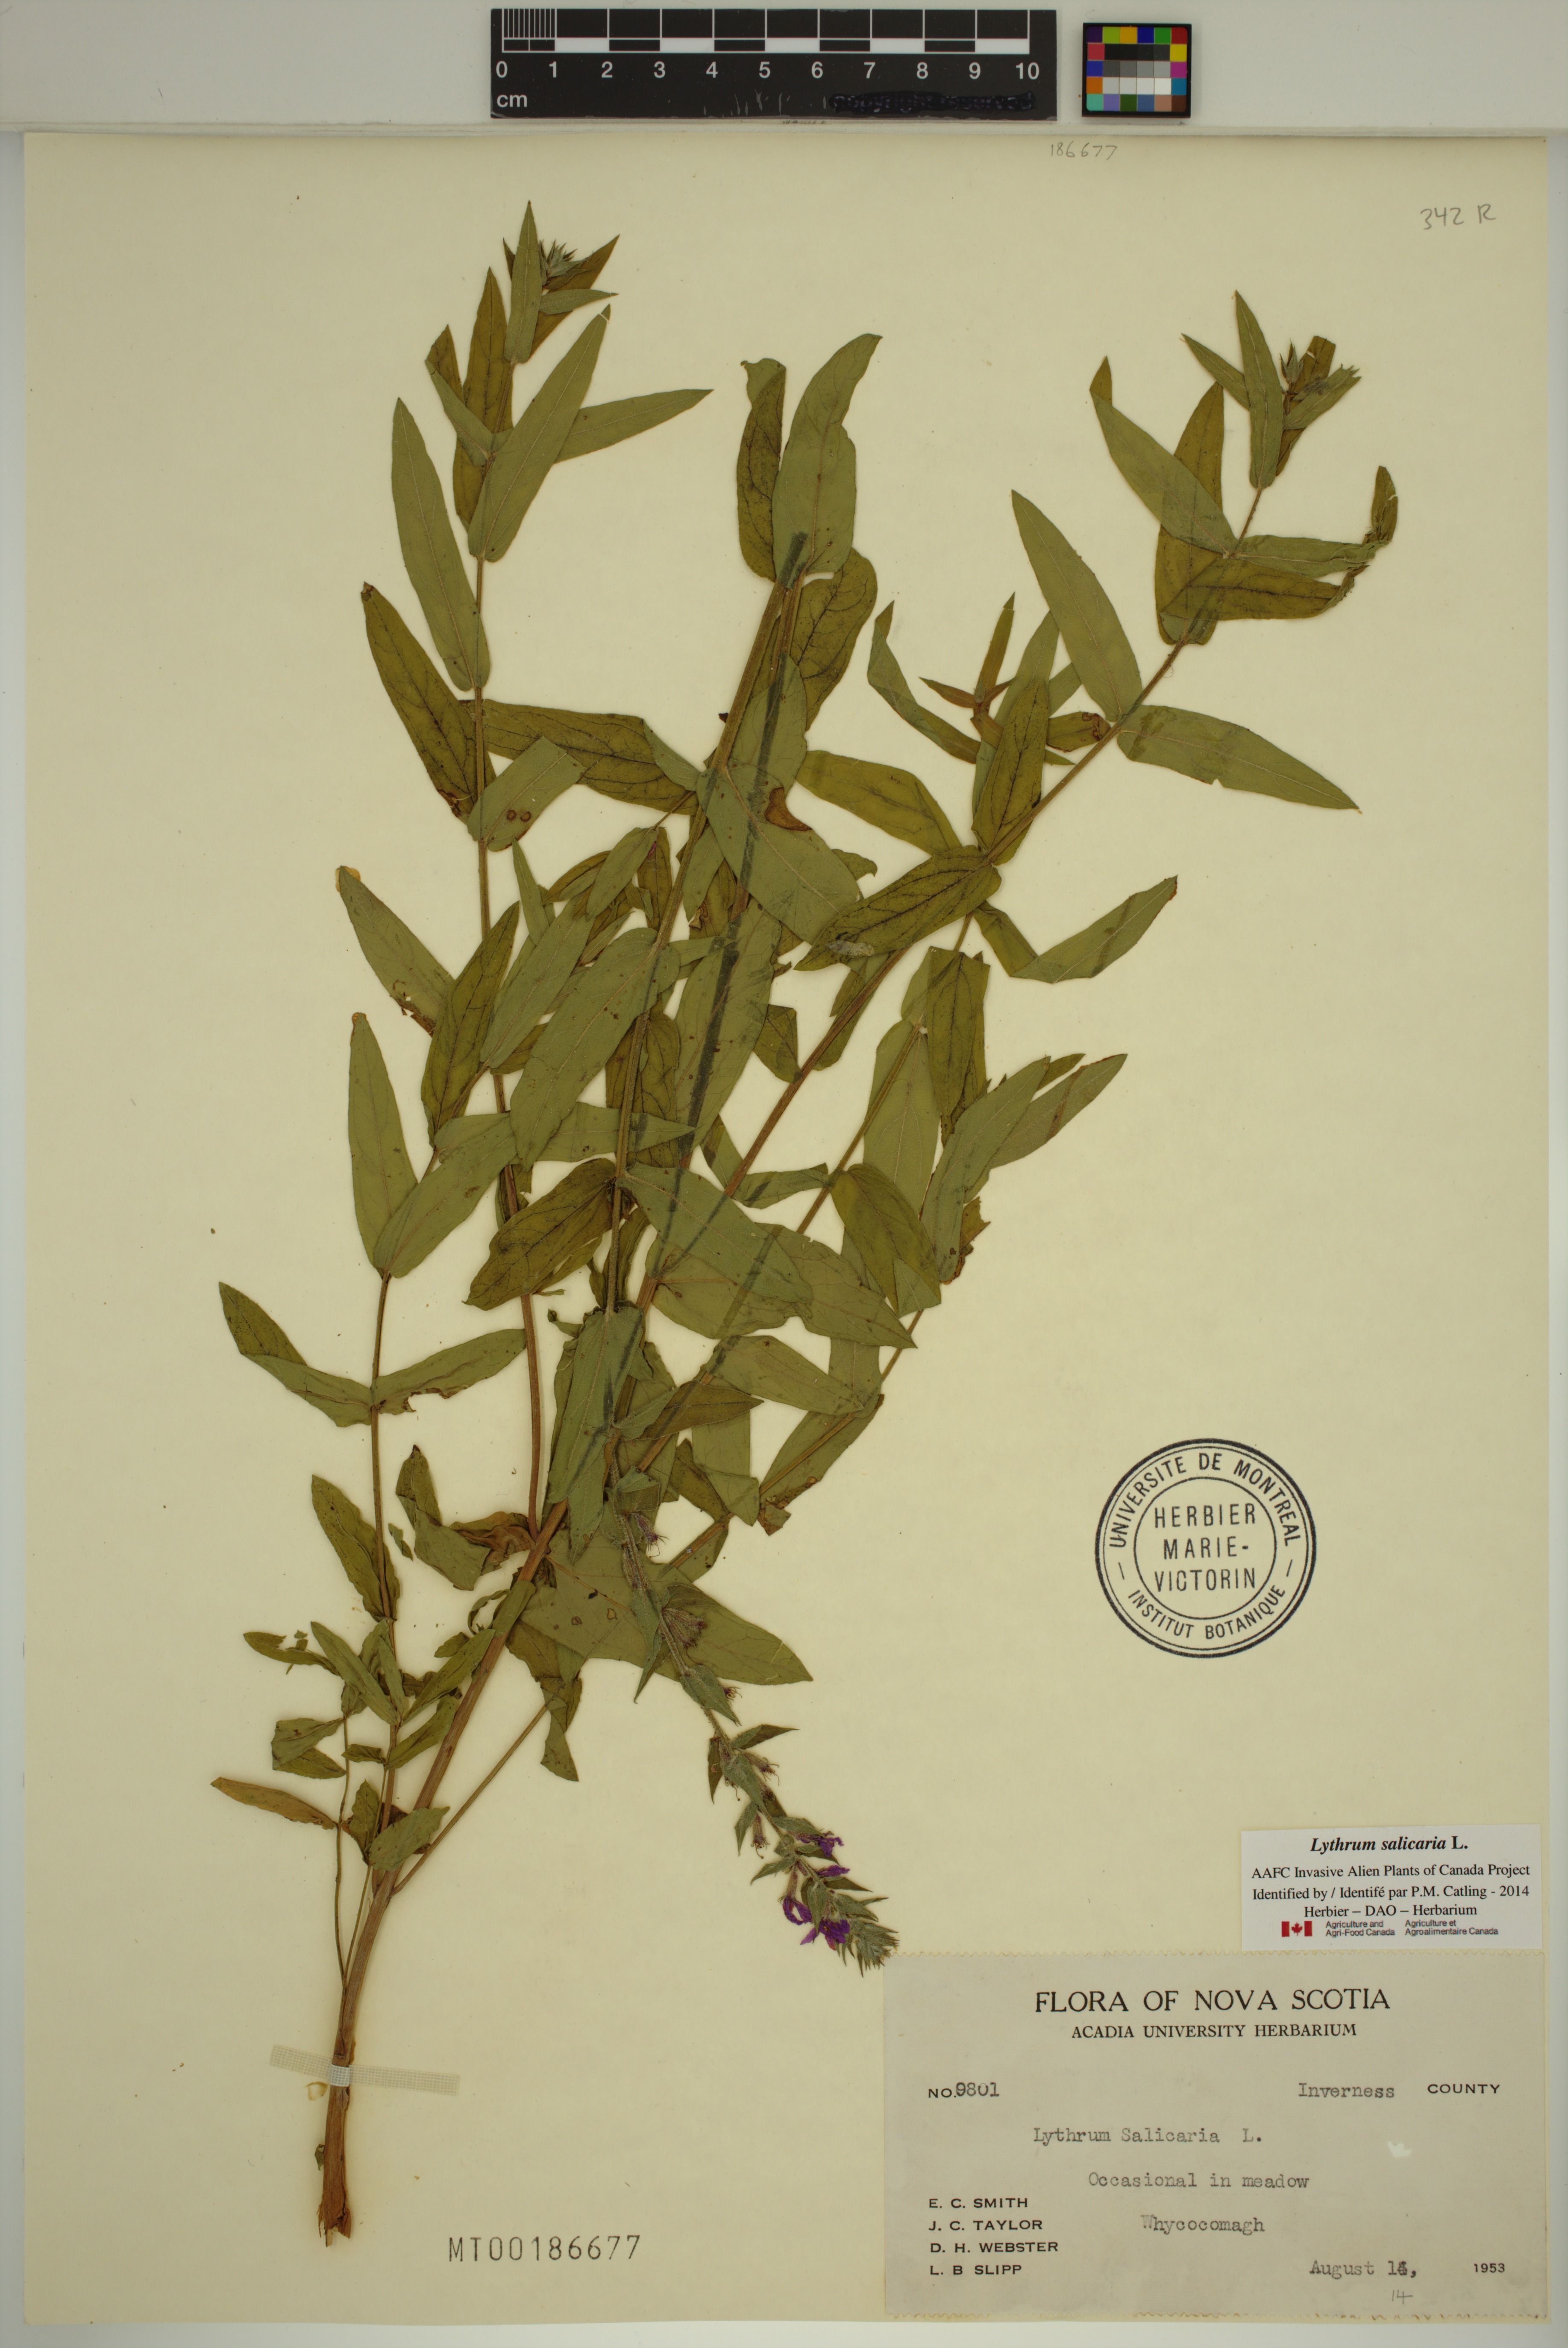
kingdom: Plantae
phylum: Tracheophyta
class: Magnoliopsida
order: Myrtales
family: Lythraceae
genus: Lythrum
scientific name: Lythrum salicaria
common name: Purple loosestrife
